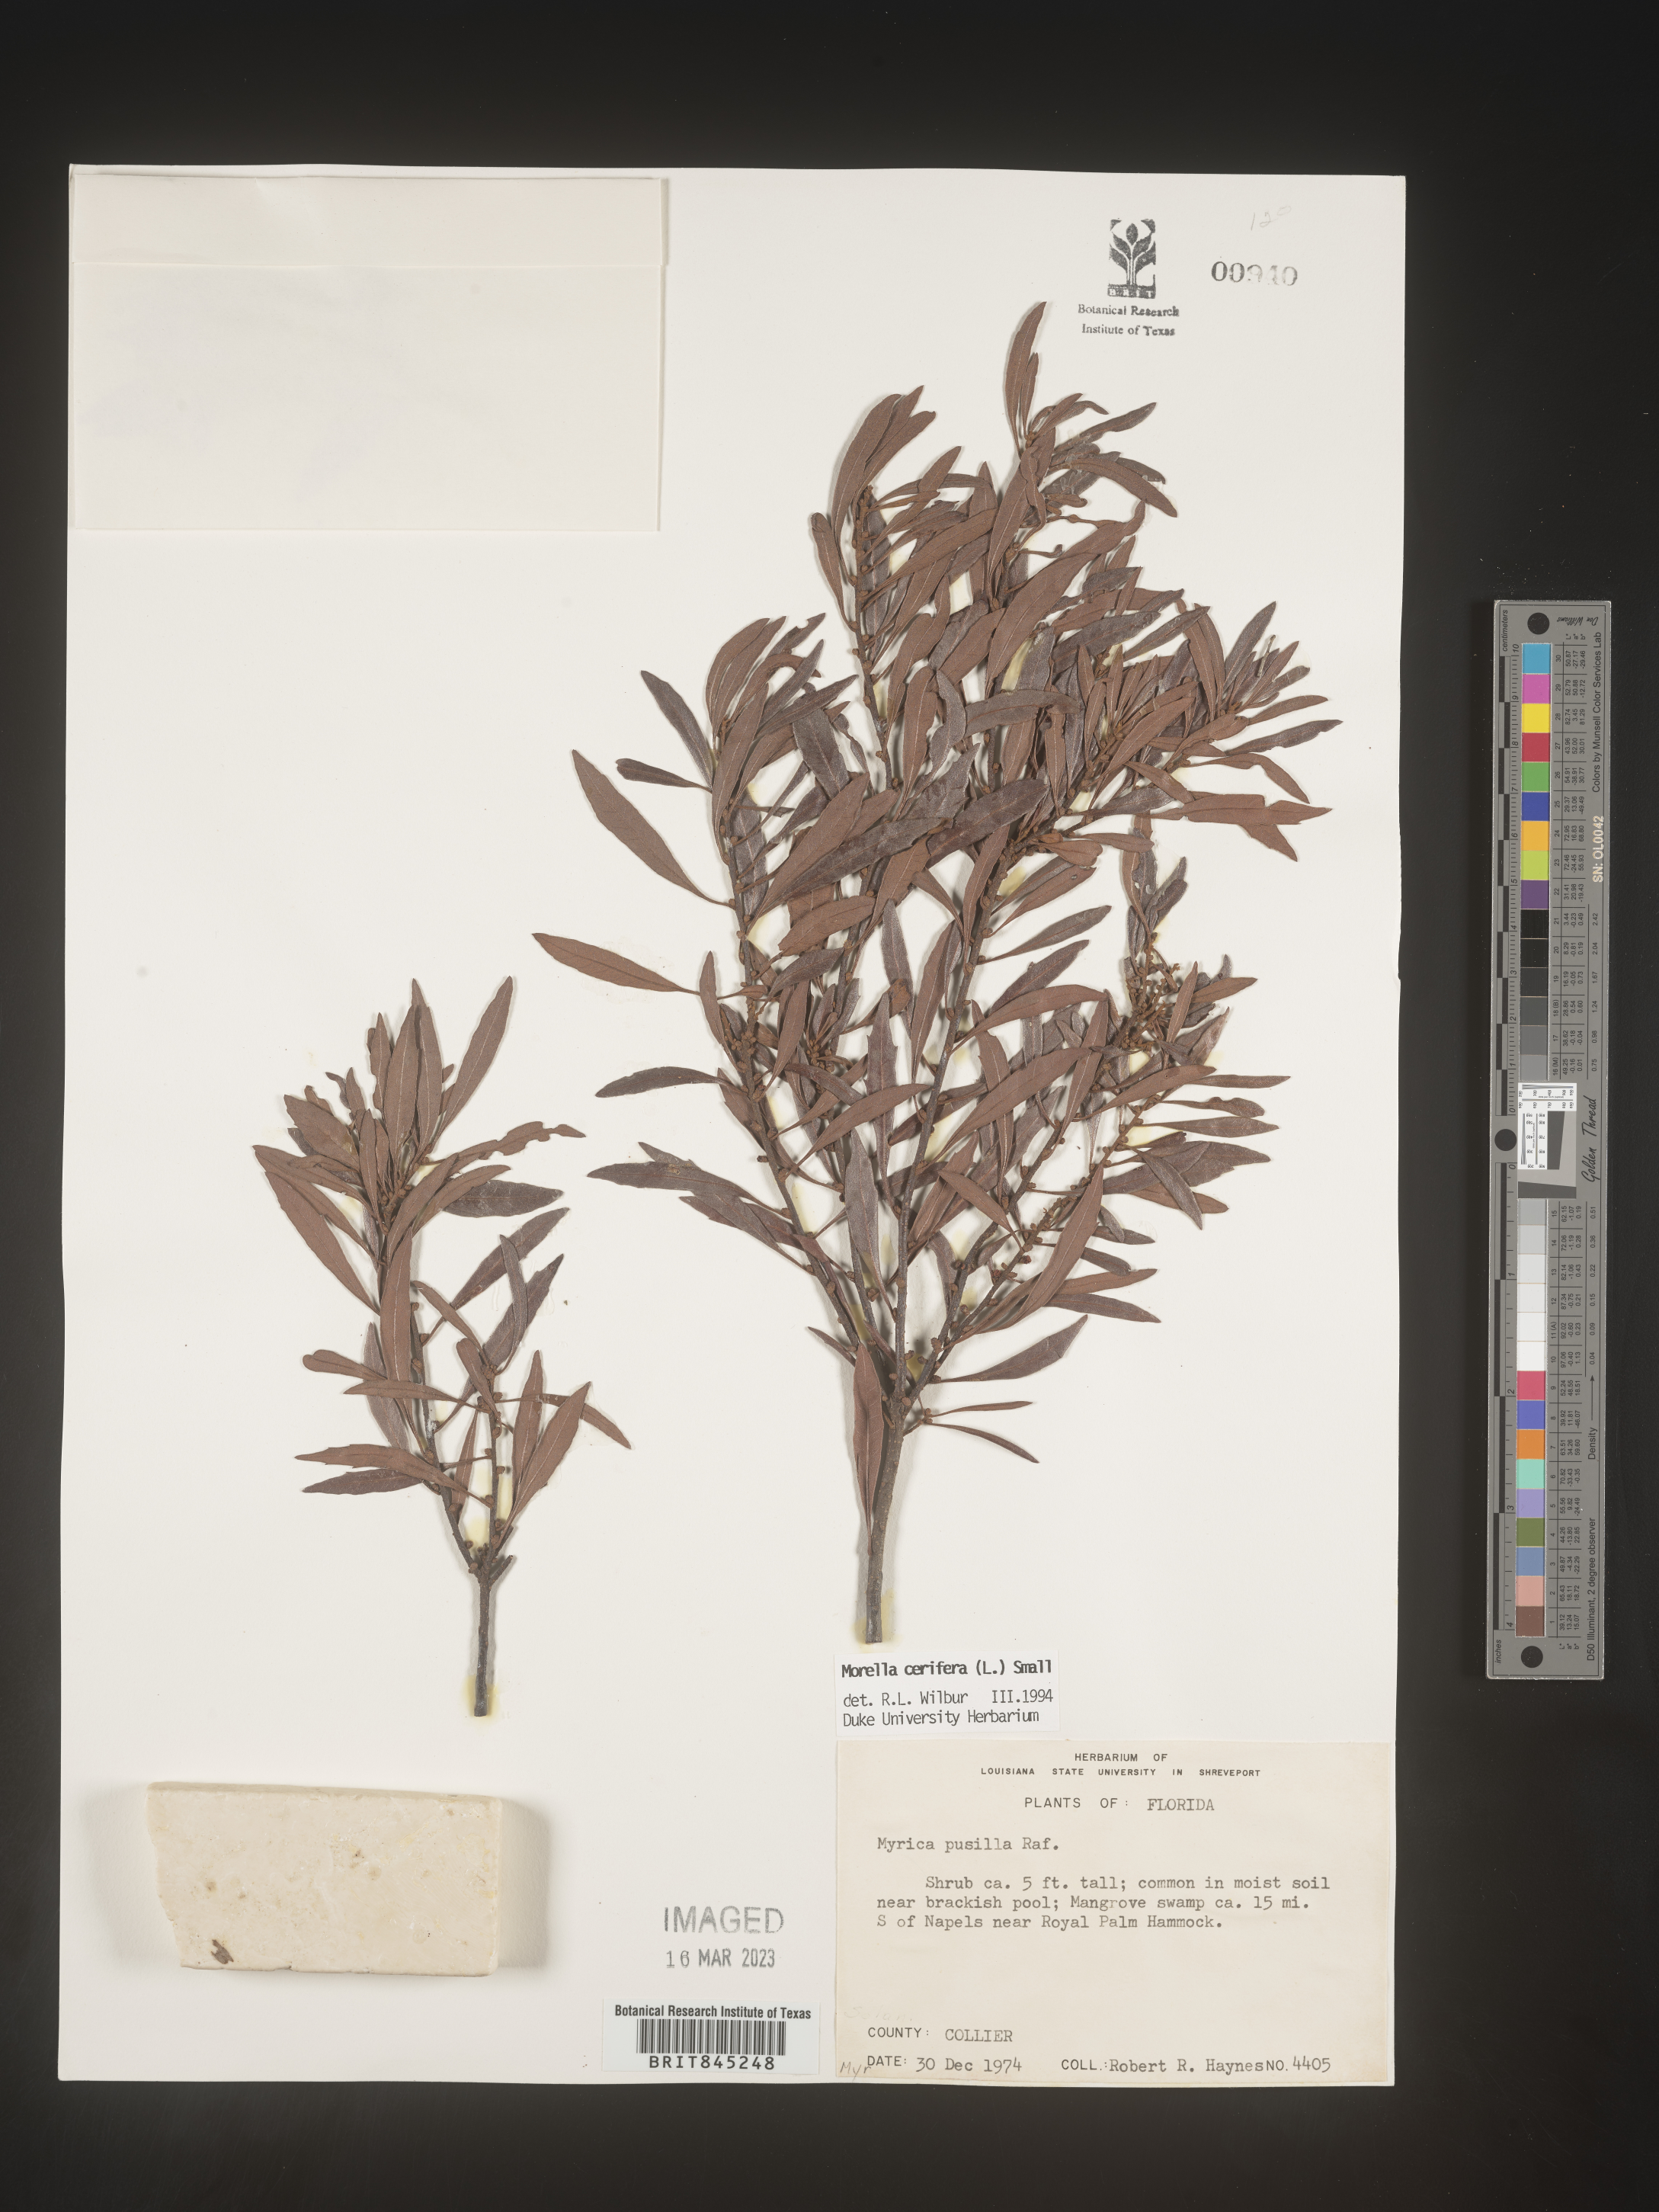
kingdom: Plantae
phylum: Tracheophyta
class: Magnoliopsida
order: Fagales
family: Myricaceae
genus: Morella
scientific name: Morella cerifera
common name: Wax myrtle
